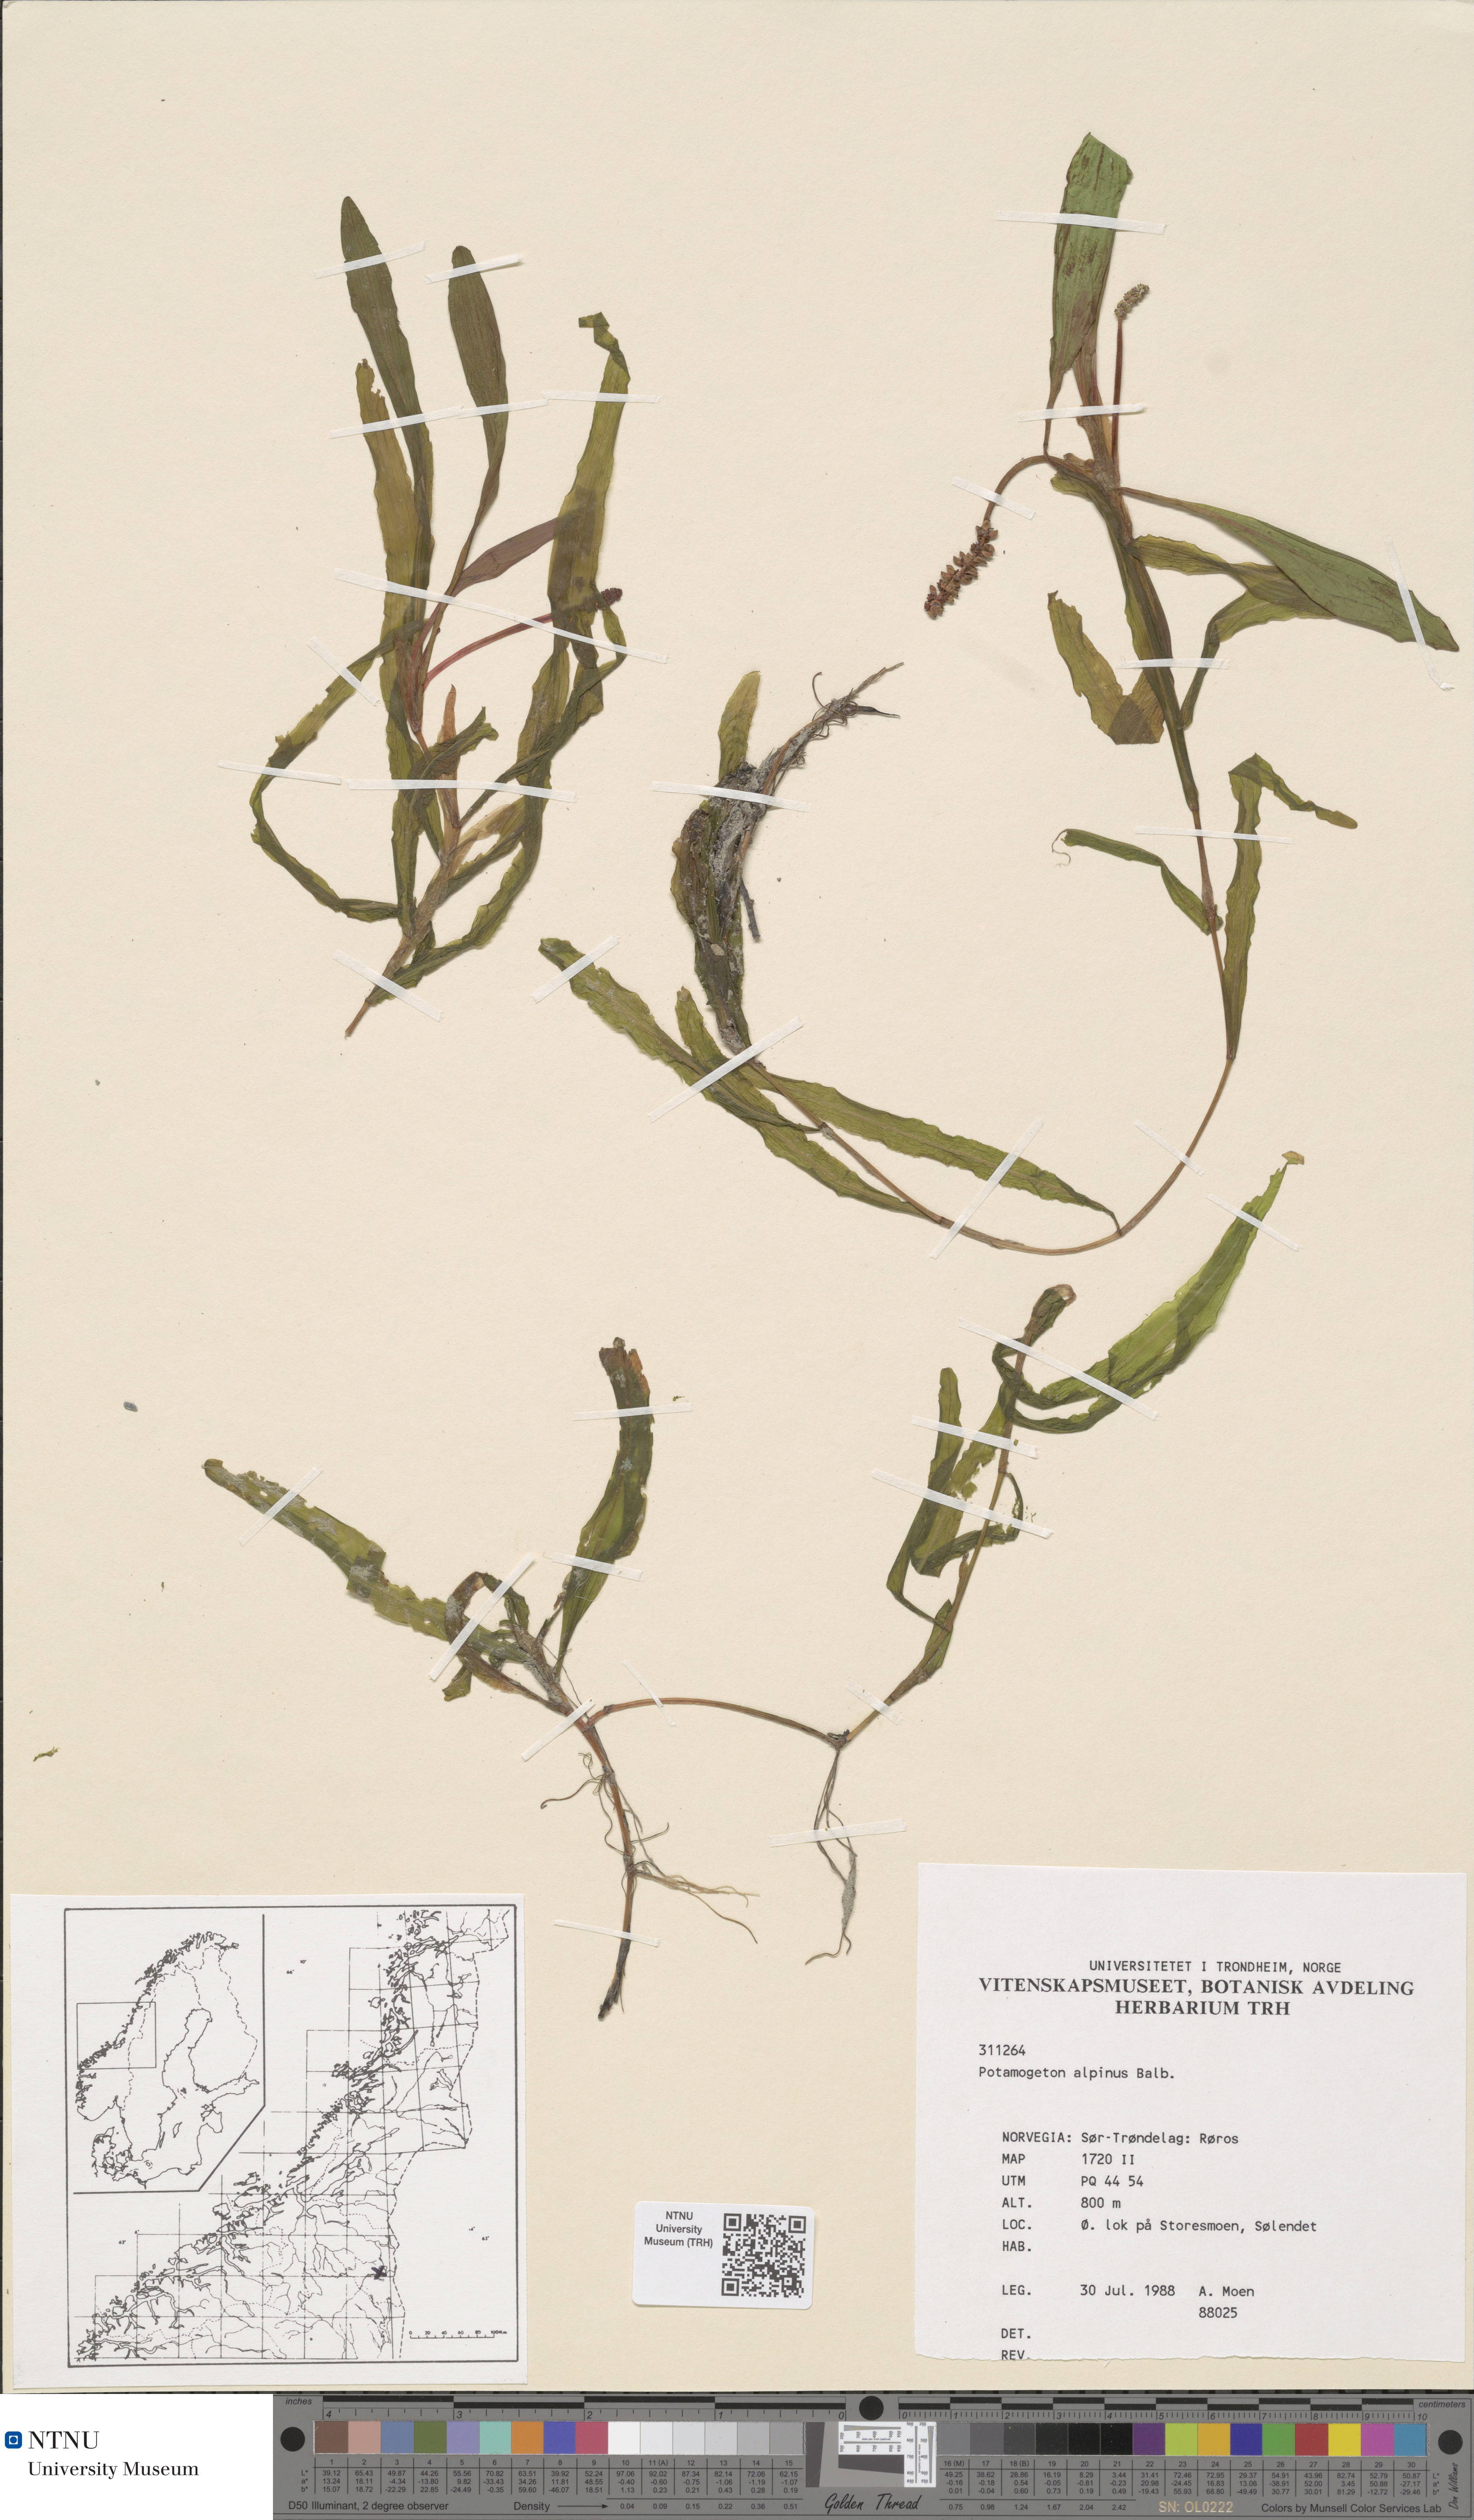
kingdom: Plantae
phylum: Tracheophyta
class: Liliopsida
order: Alismatales
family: Potamogetonaceae
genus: Potamogeton
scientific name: Potamogeton alpinus
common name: Red pondweed
